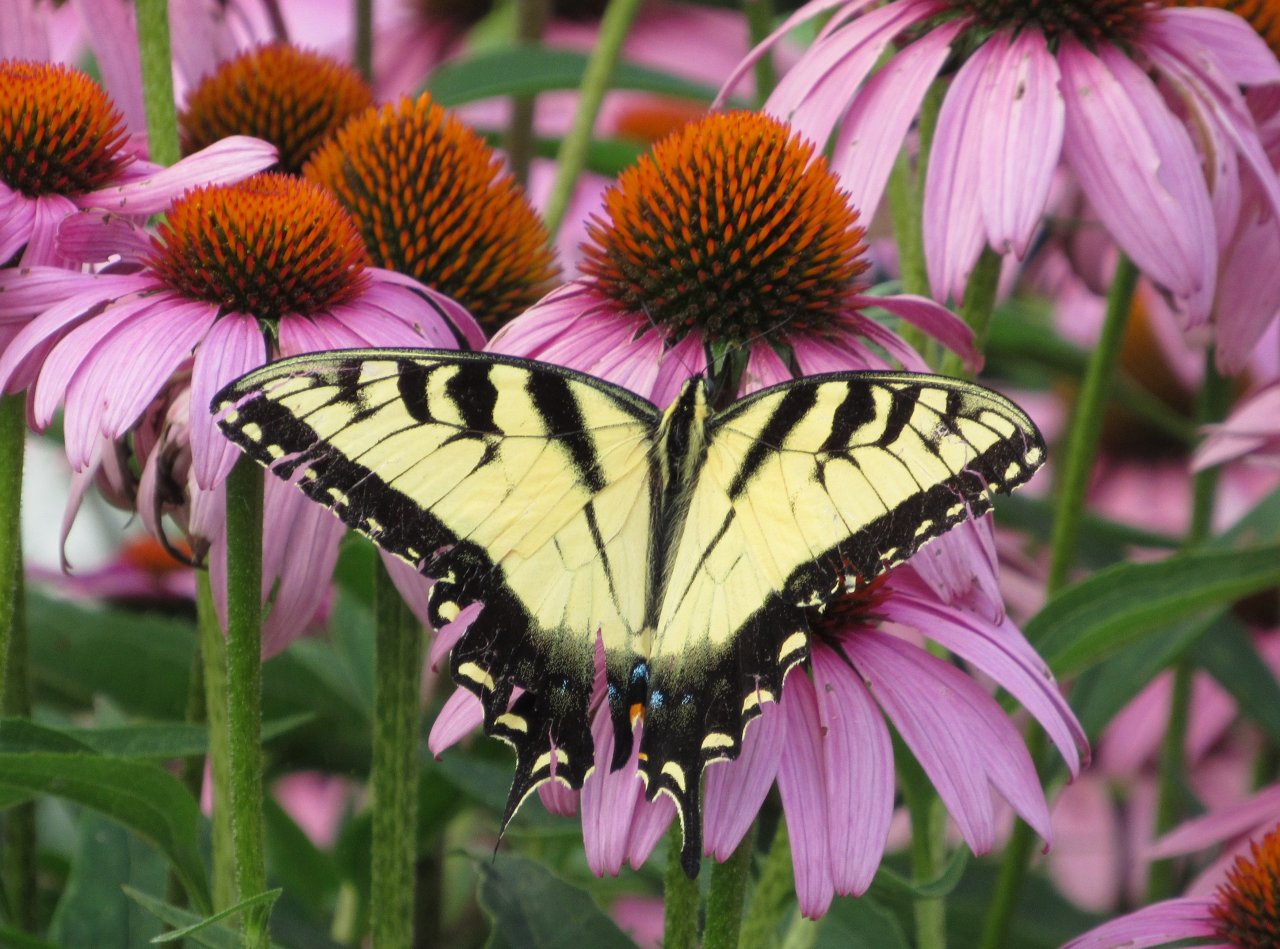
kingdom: Animalia
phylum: Arthropoda
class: Insecta
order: Lepidoptera
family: Papilionidae
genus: Pterourus
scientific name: Pterourus glaucus
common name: Eastern Tiger Swallowtail
